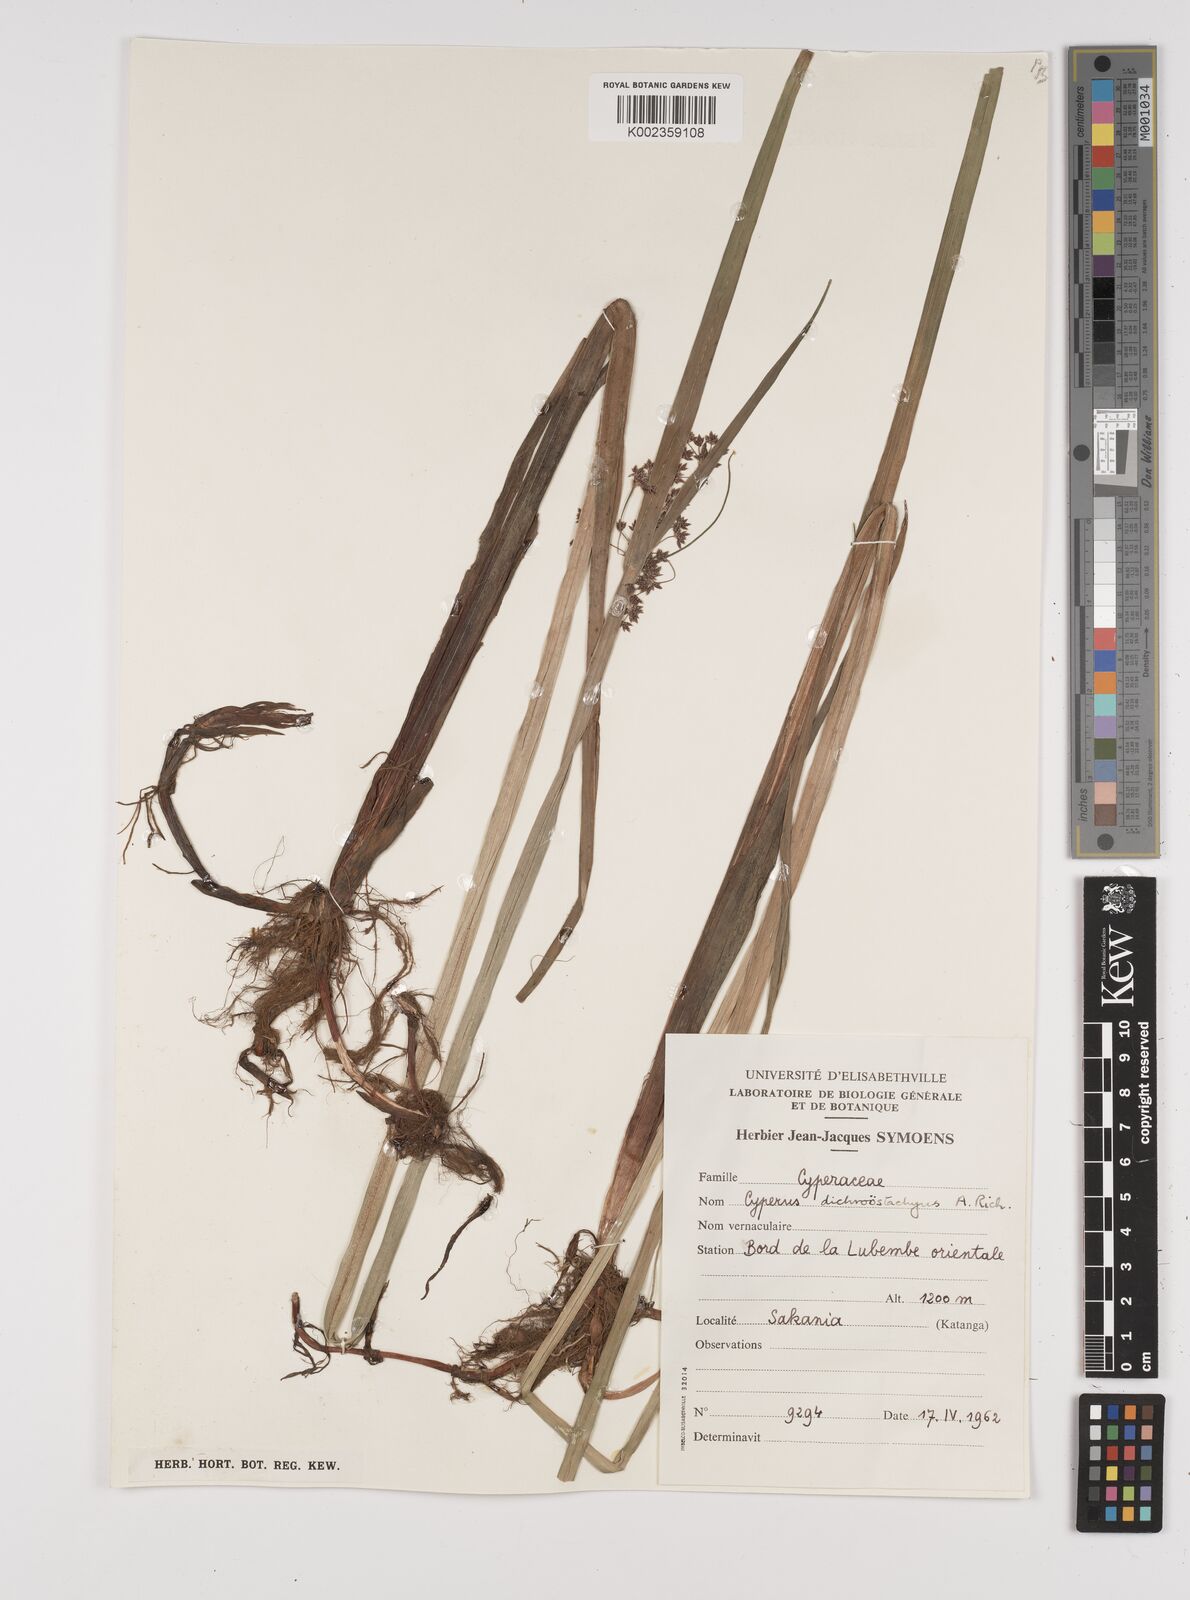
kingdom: Plantae
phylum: Tracheophyta
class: Liliopsida
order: Poales
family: Cyperaceae
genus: Cyperus
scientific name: Cyperus dichrostachyus
